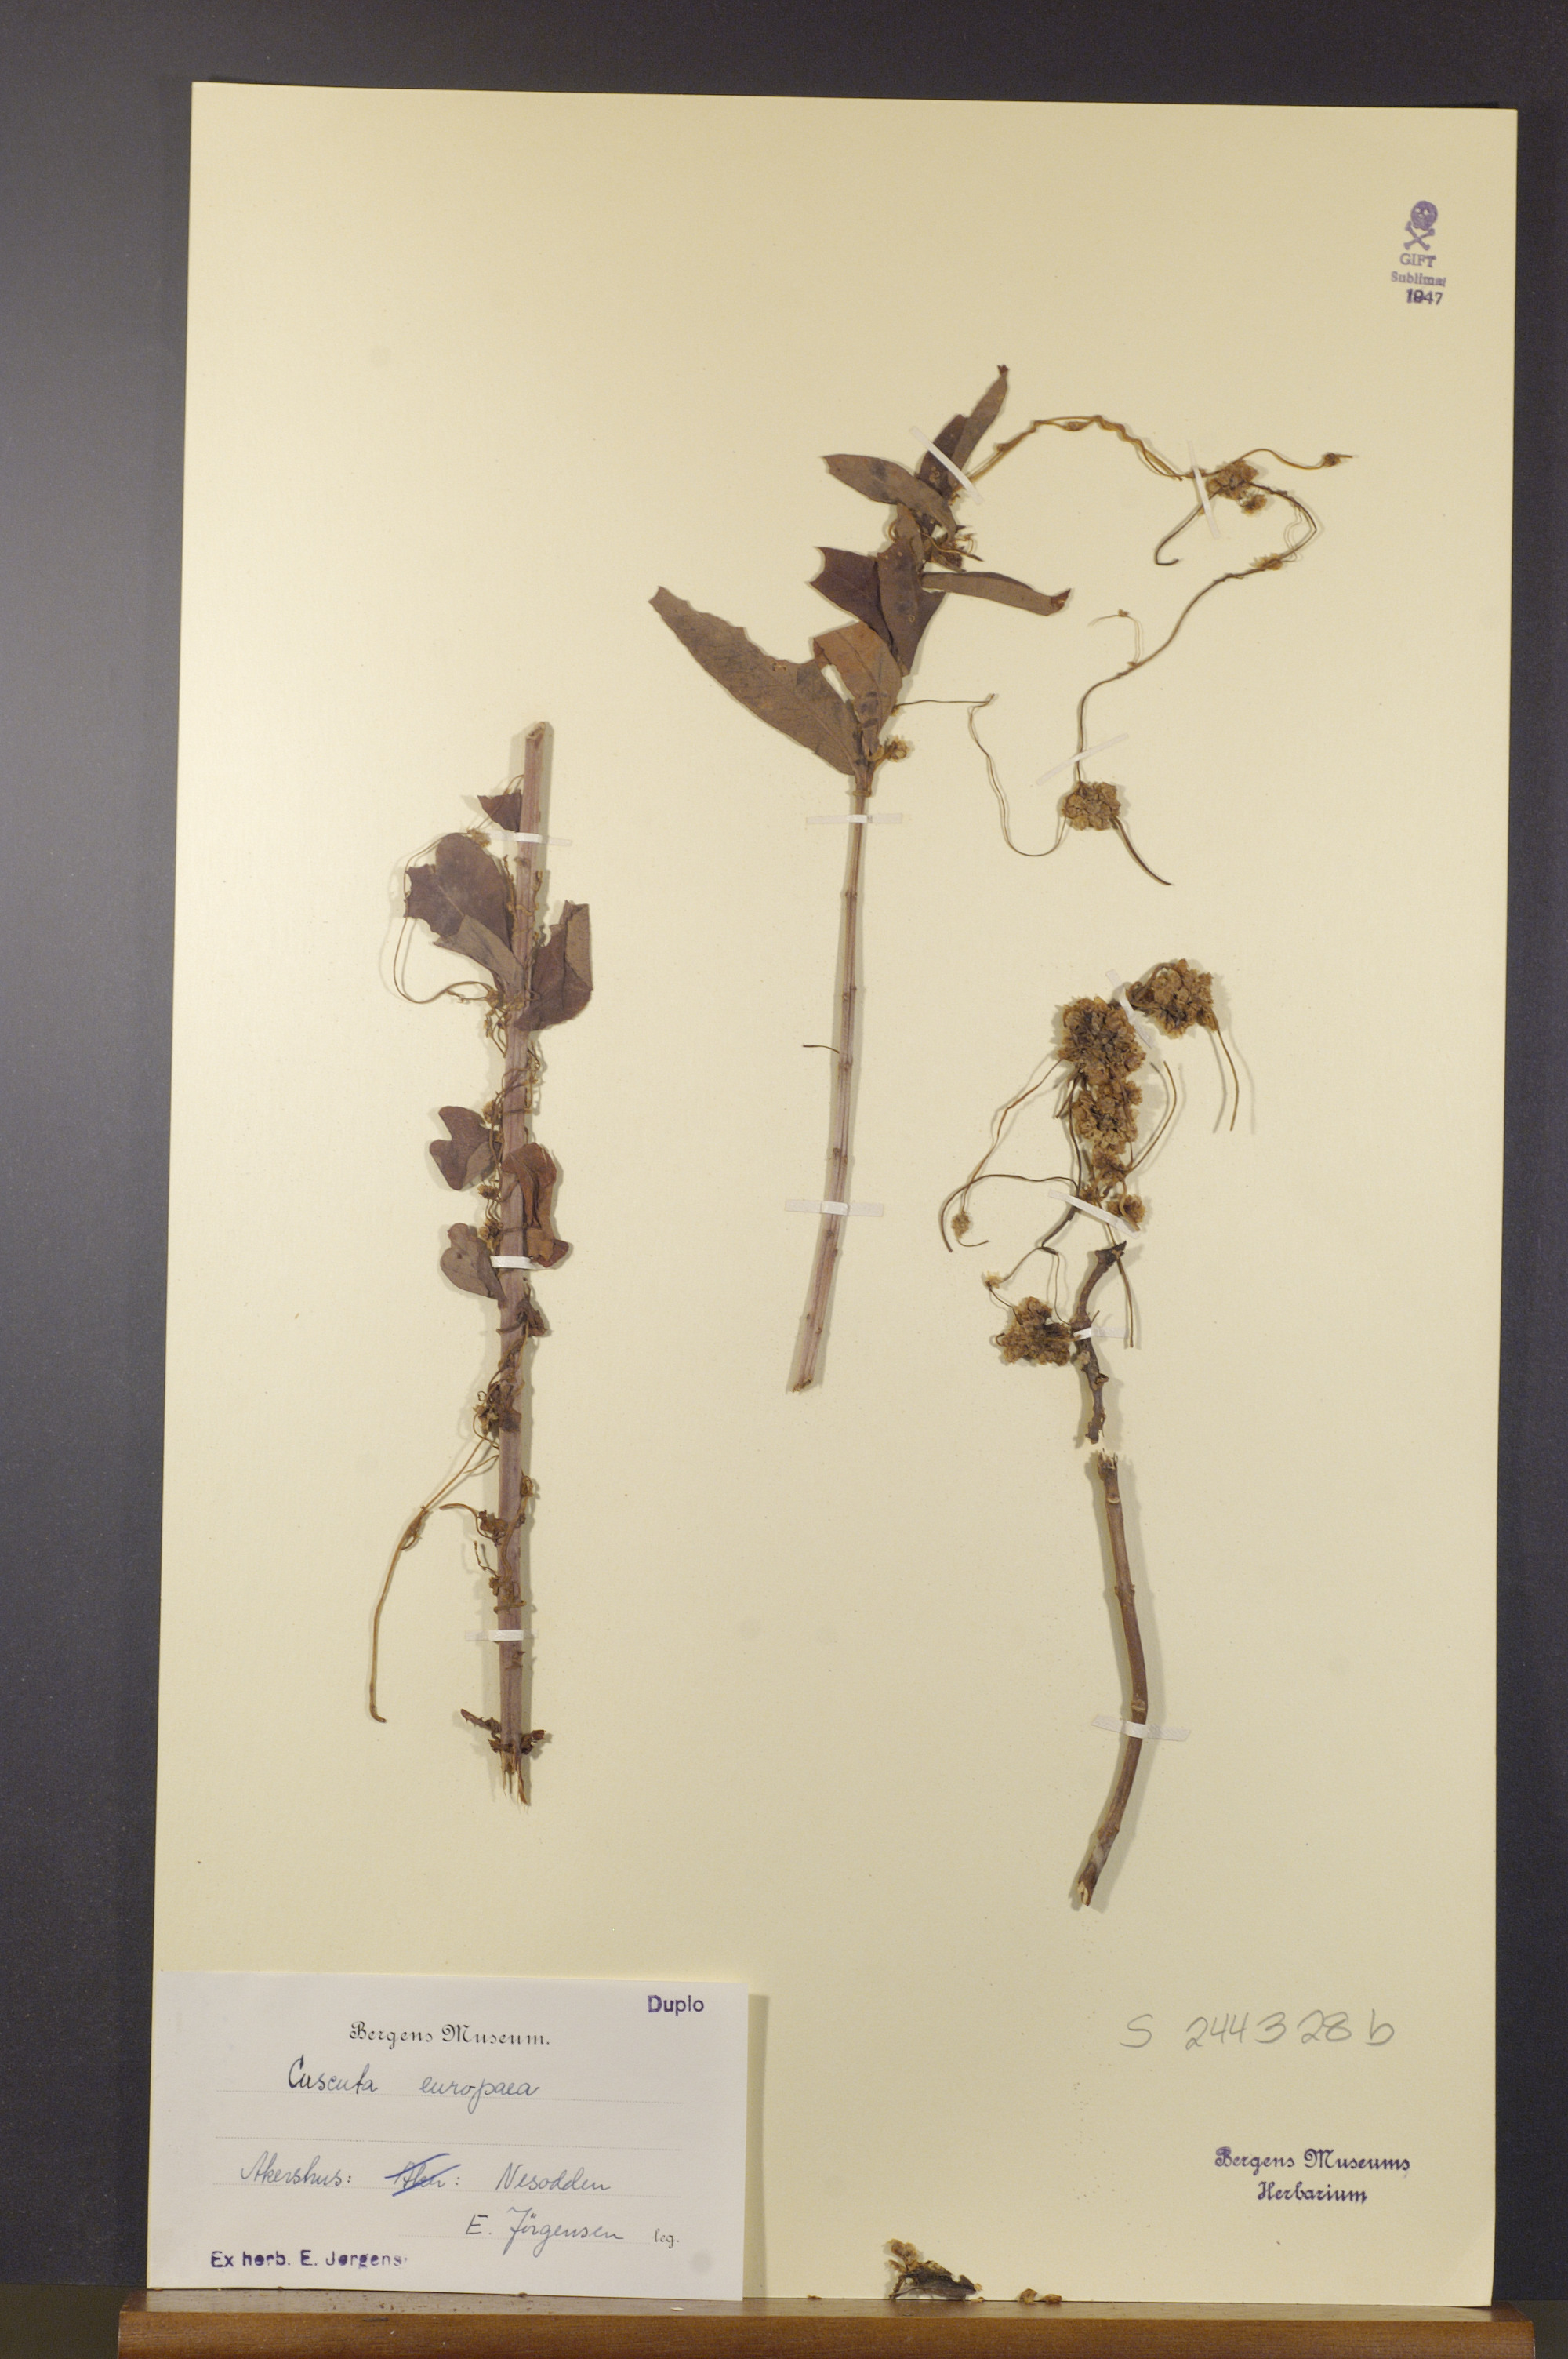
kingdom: Plantae
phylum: Tracheophyta
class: Magnoliopsida
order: Solanales
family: Convolvulaceae
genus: Cuscuta
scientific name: Cuscuta europaea
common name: Greater dodder
